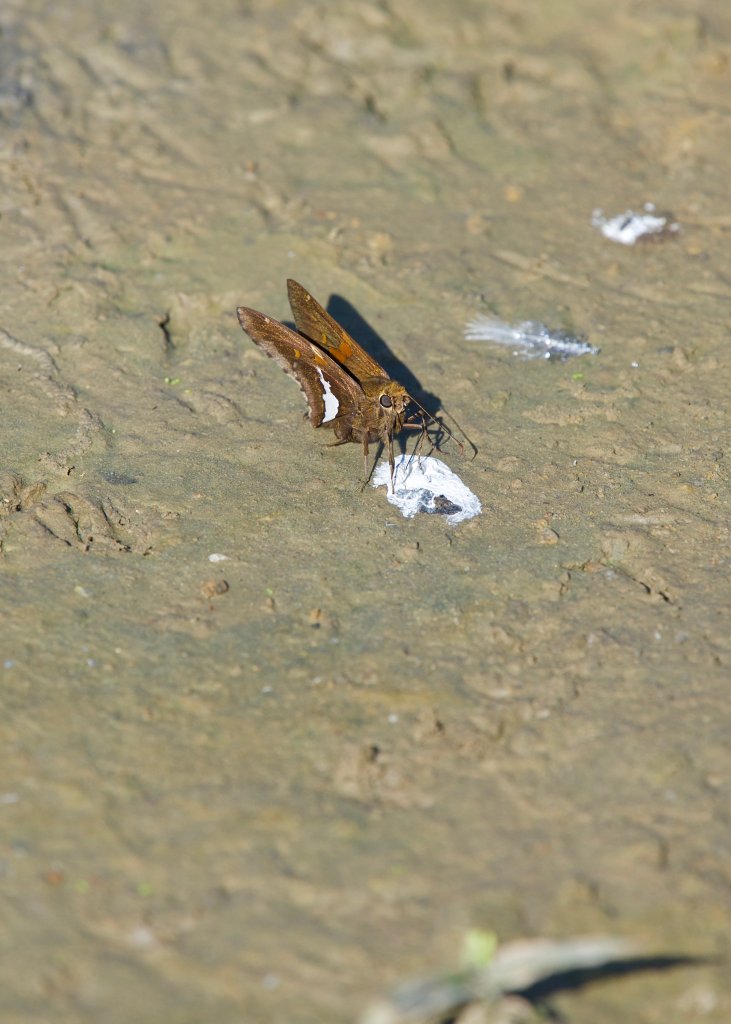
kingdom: Animalia
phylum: Arthropoda
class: Insecta
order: Lepidoptera
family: Hesperiidae
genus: Epargyreus
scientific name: Epargyreus clarus
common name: Silver-spotted Skipper
